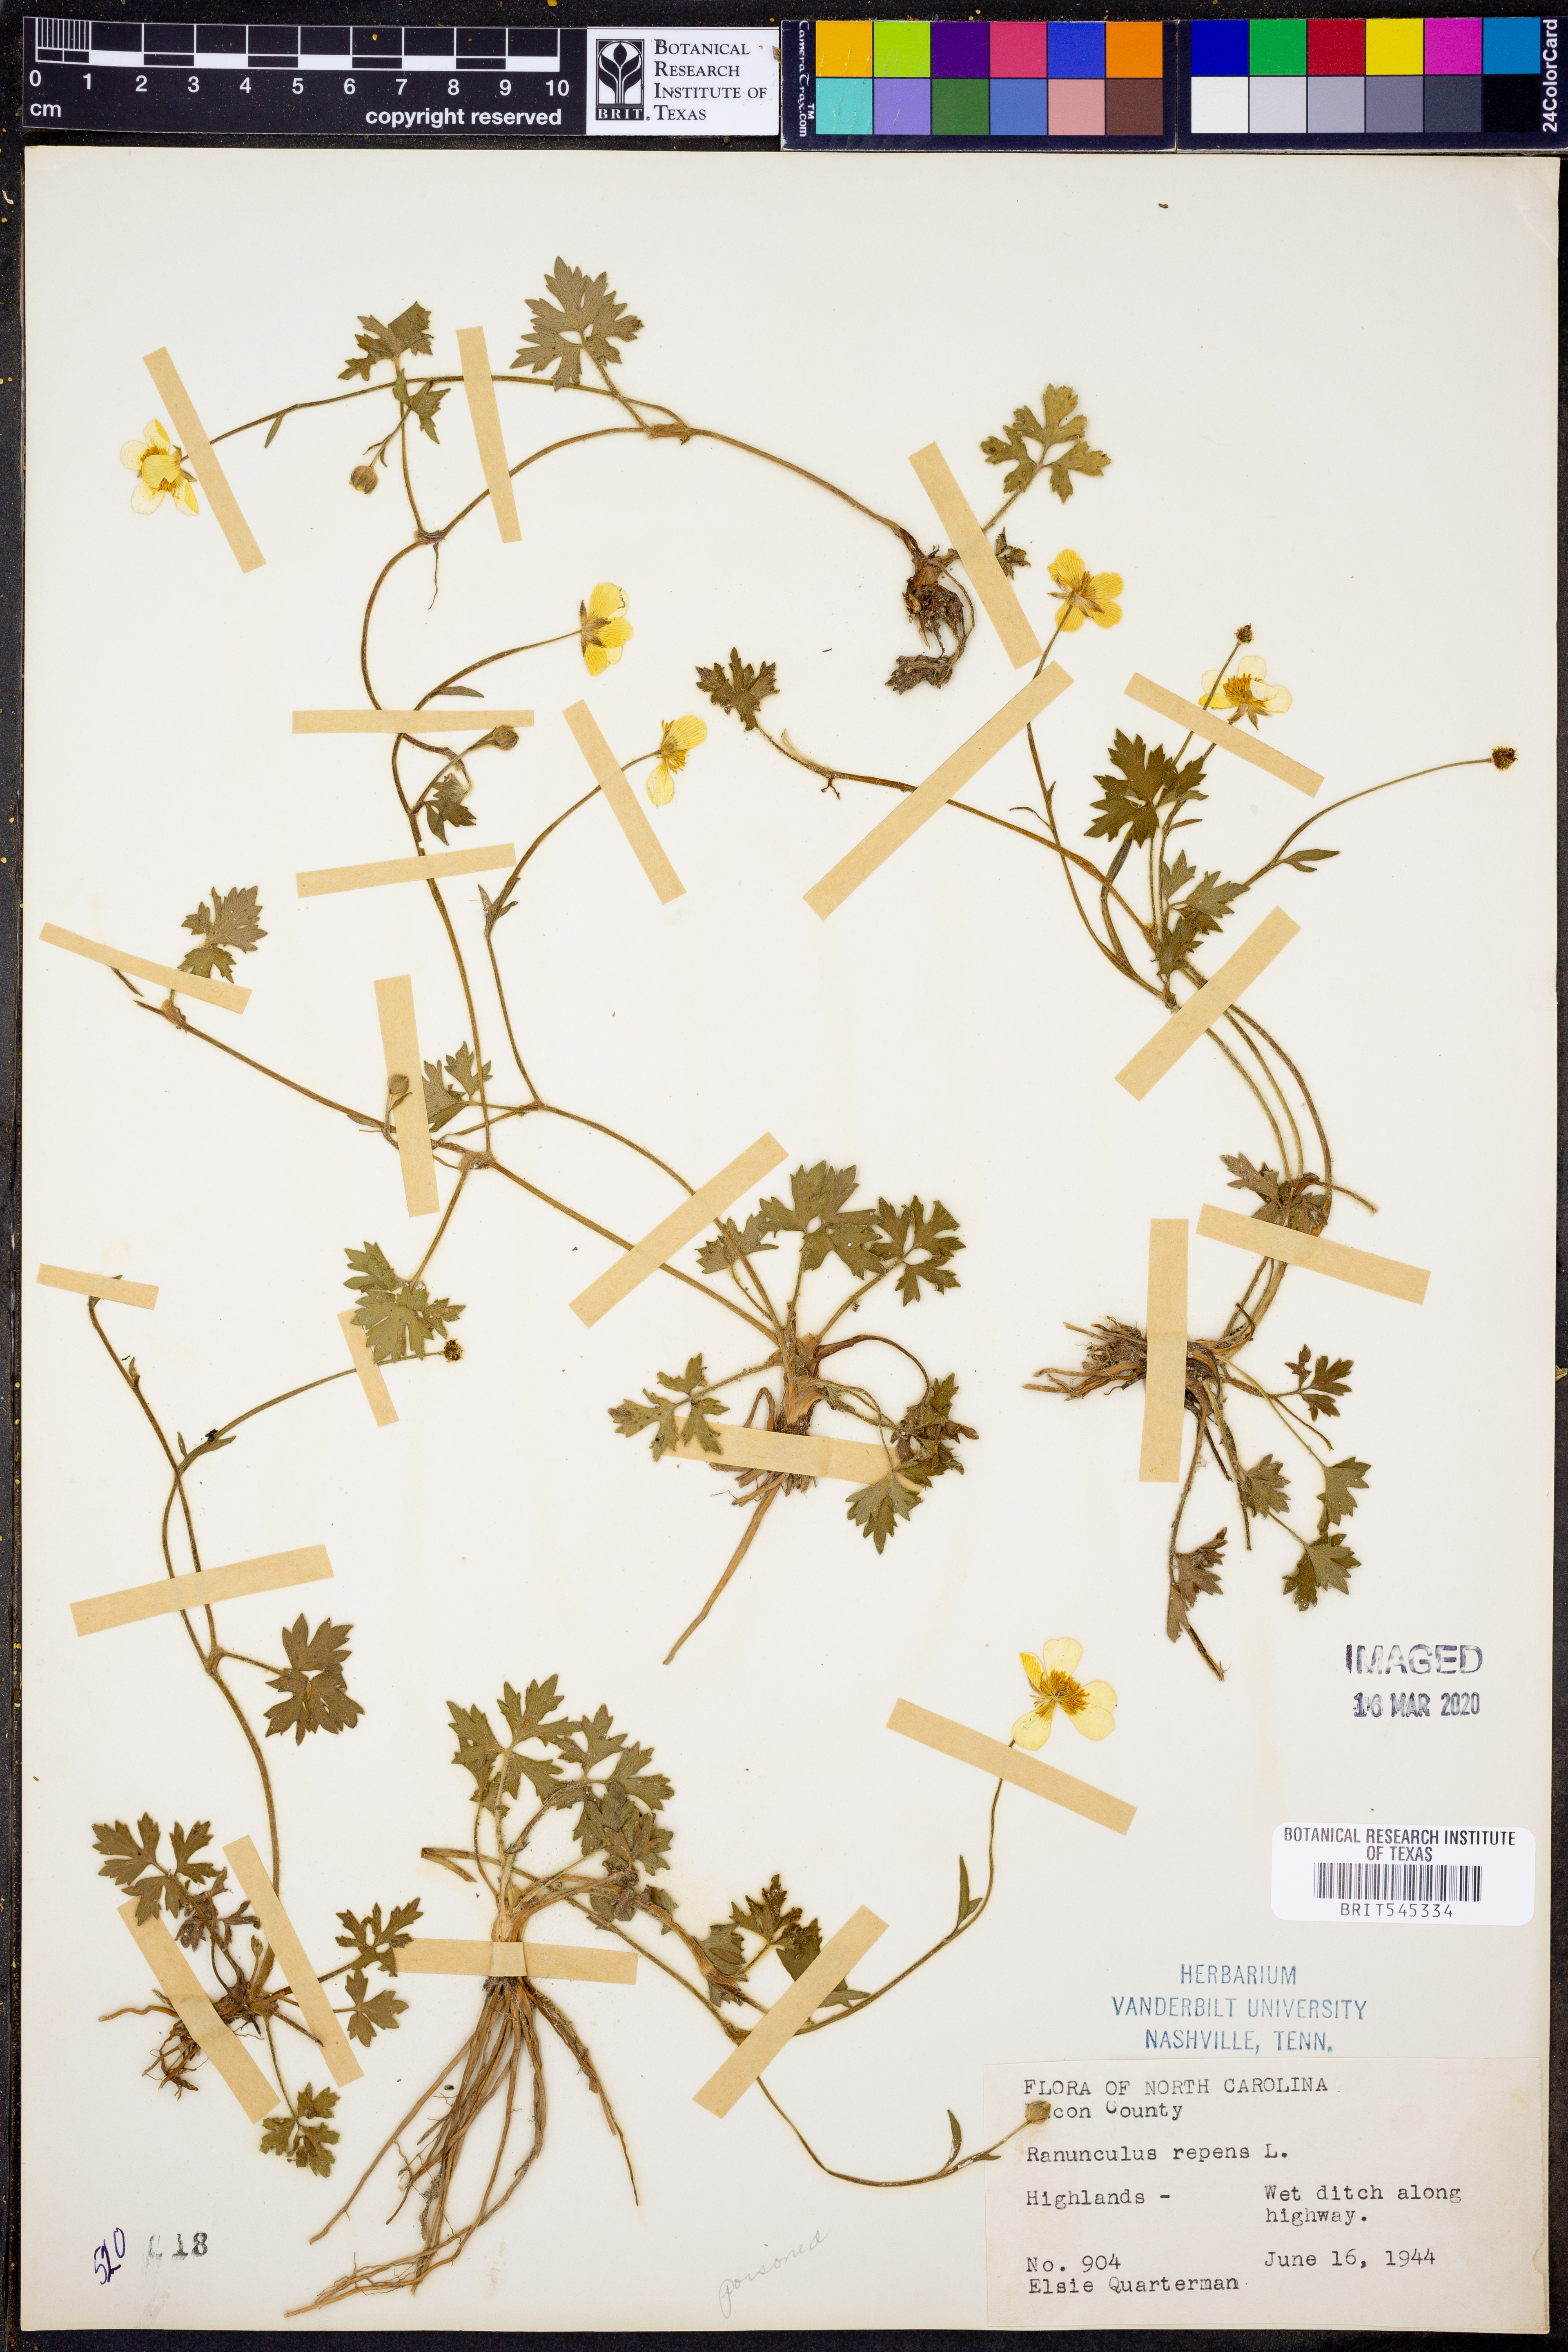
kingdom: Plantae
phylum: Tracheophyta
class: Magnoliopsida
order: Ranunculales
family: Ranunculaceae
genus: Ranunculus
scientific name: Ranunculus repens
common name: Creeping buttercup
